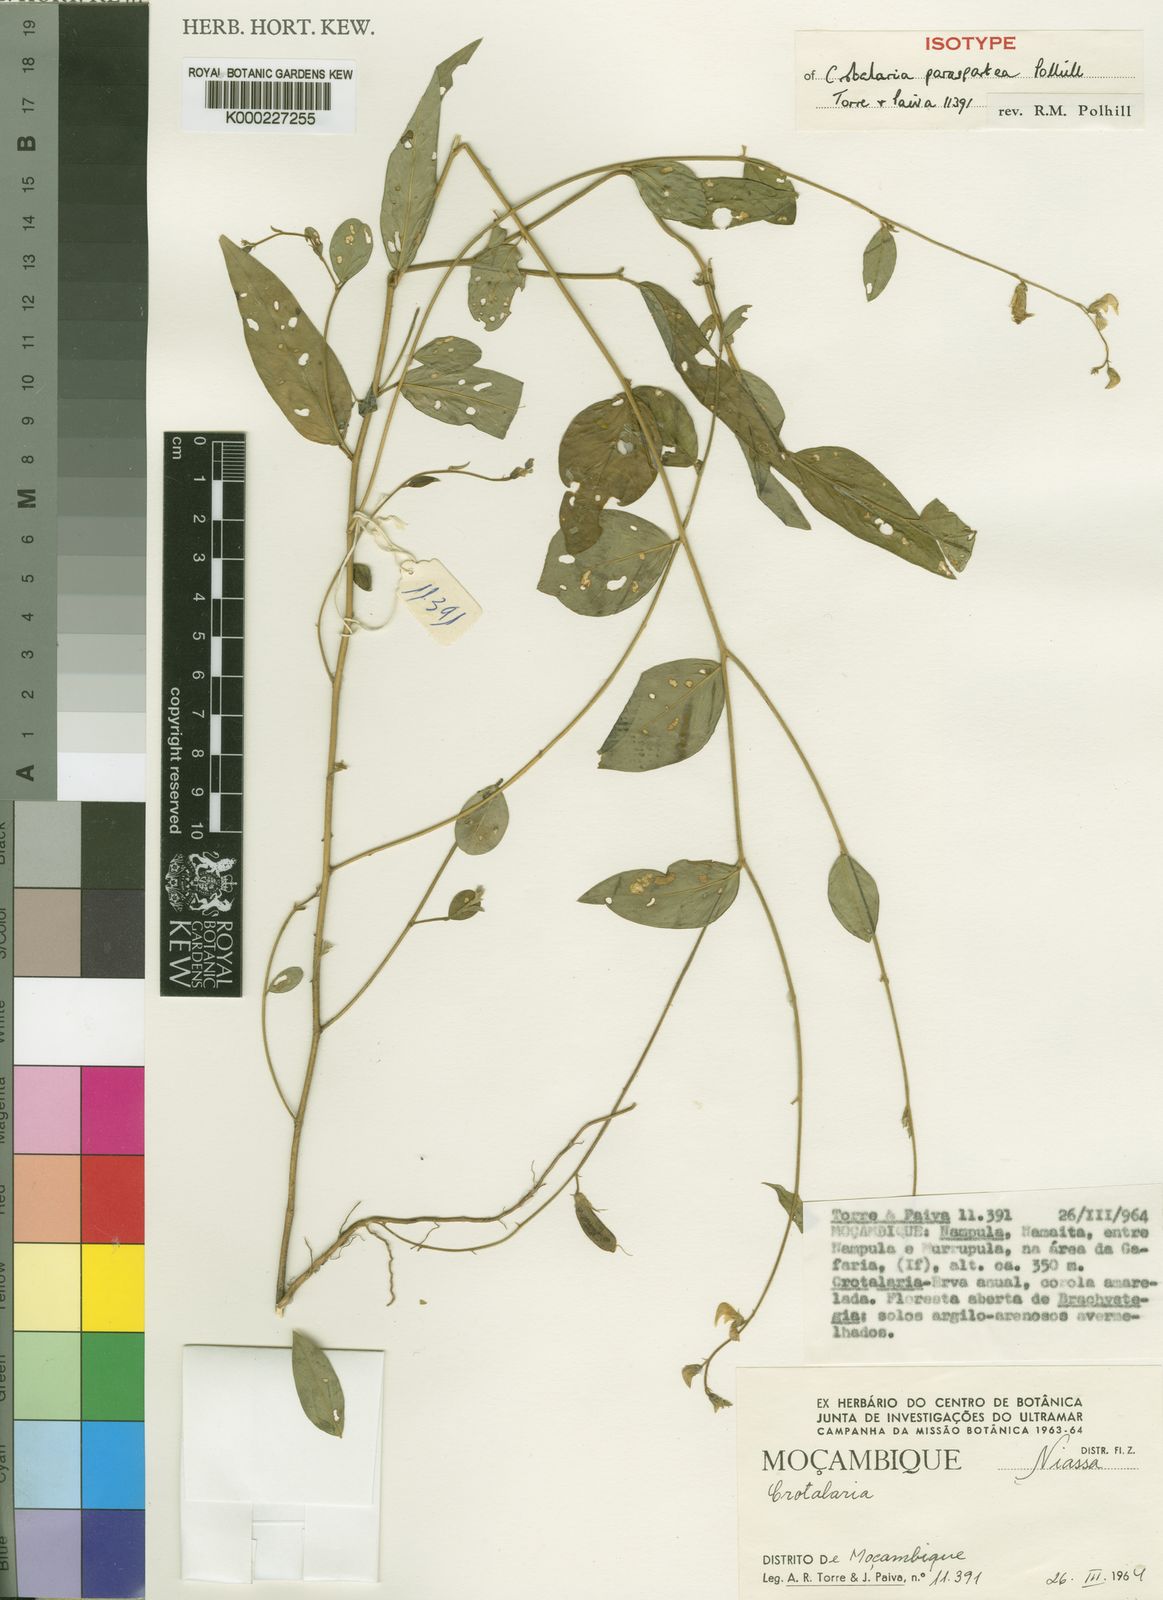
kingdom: Plantae
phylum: Tracheophyta
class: Magnoliopsida
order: Fabales
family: Fabaceae
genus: Crotalaria
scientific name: Crotalaria paraspartea
